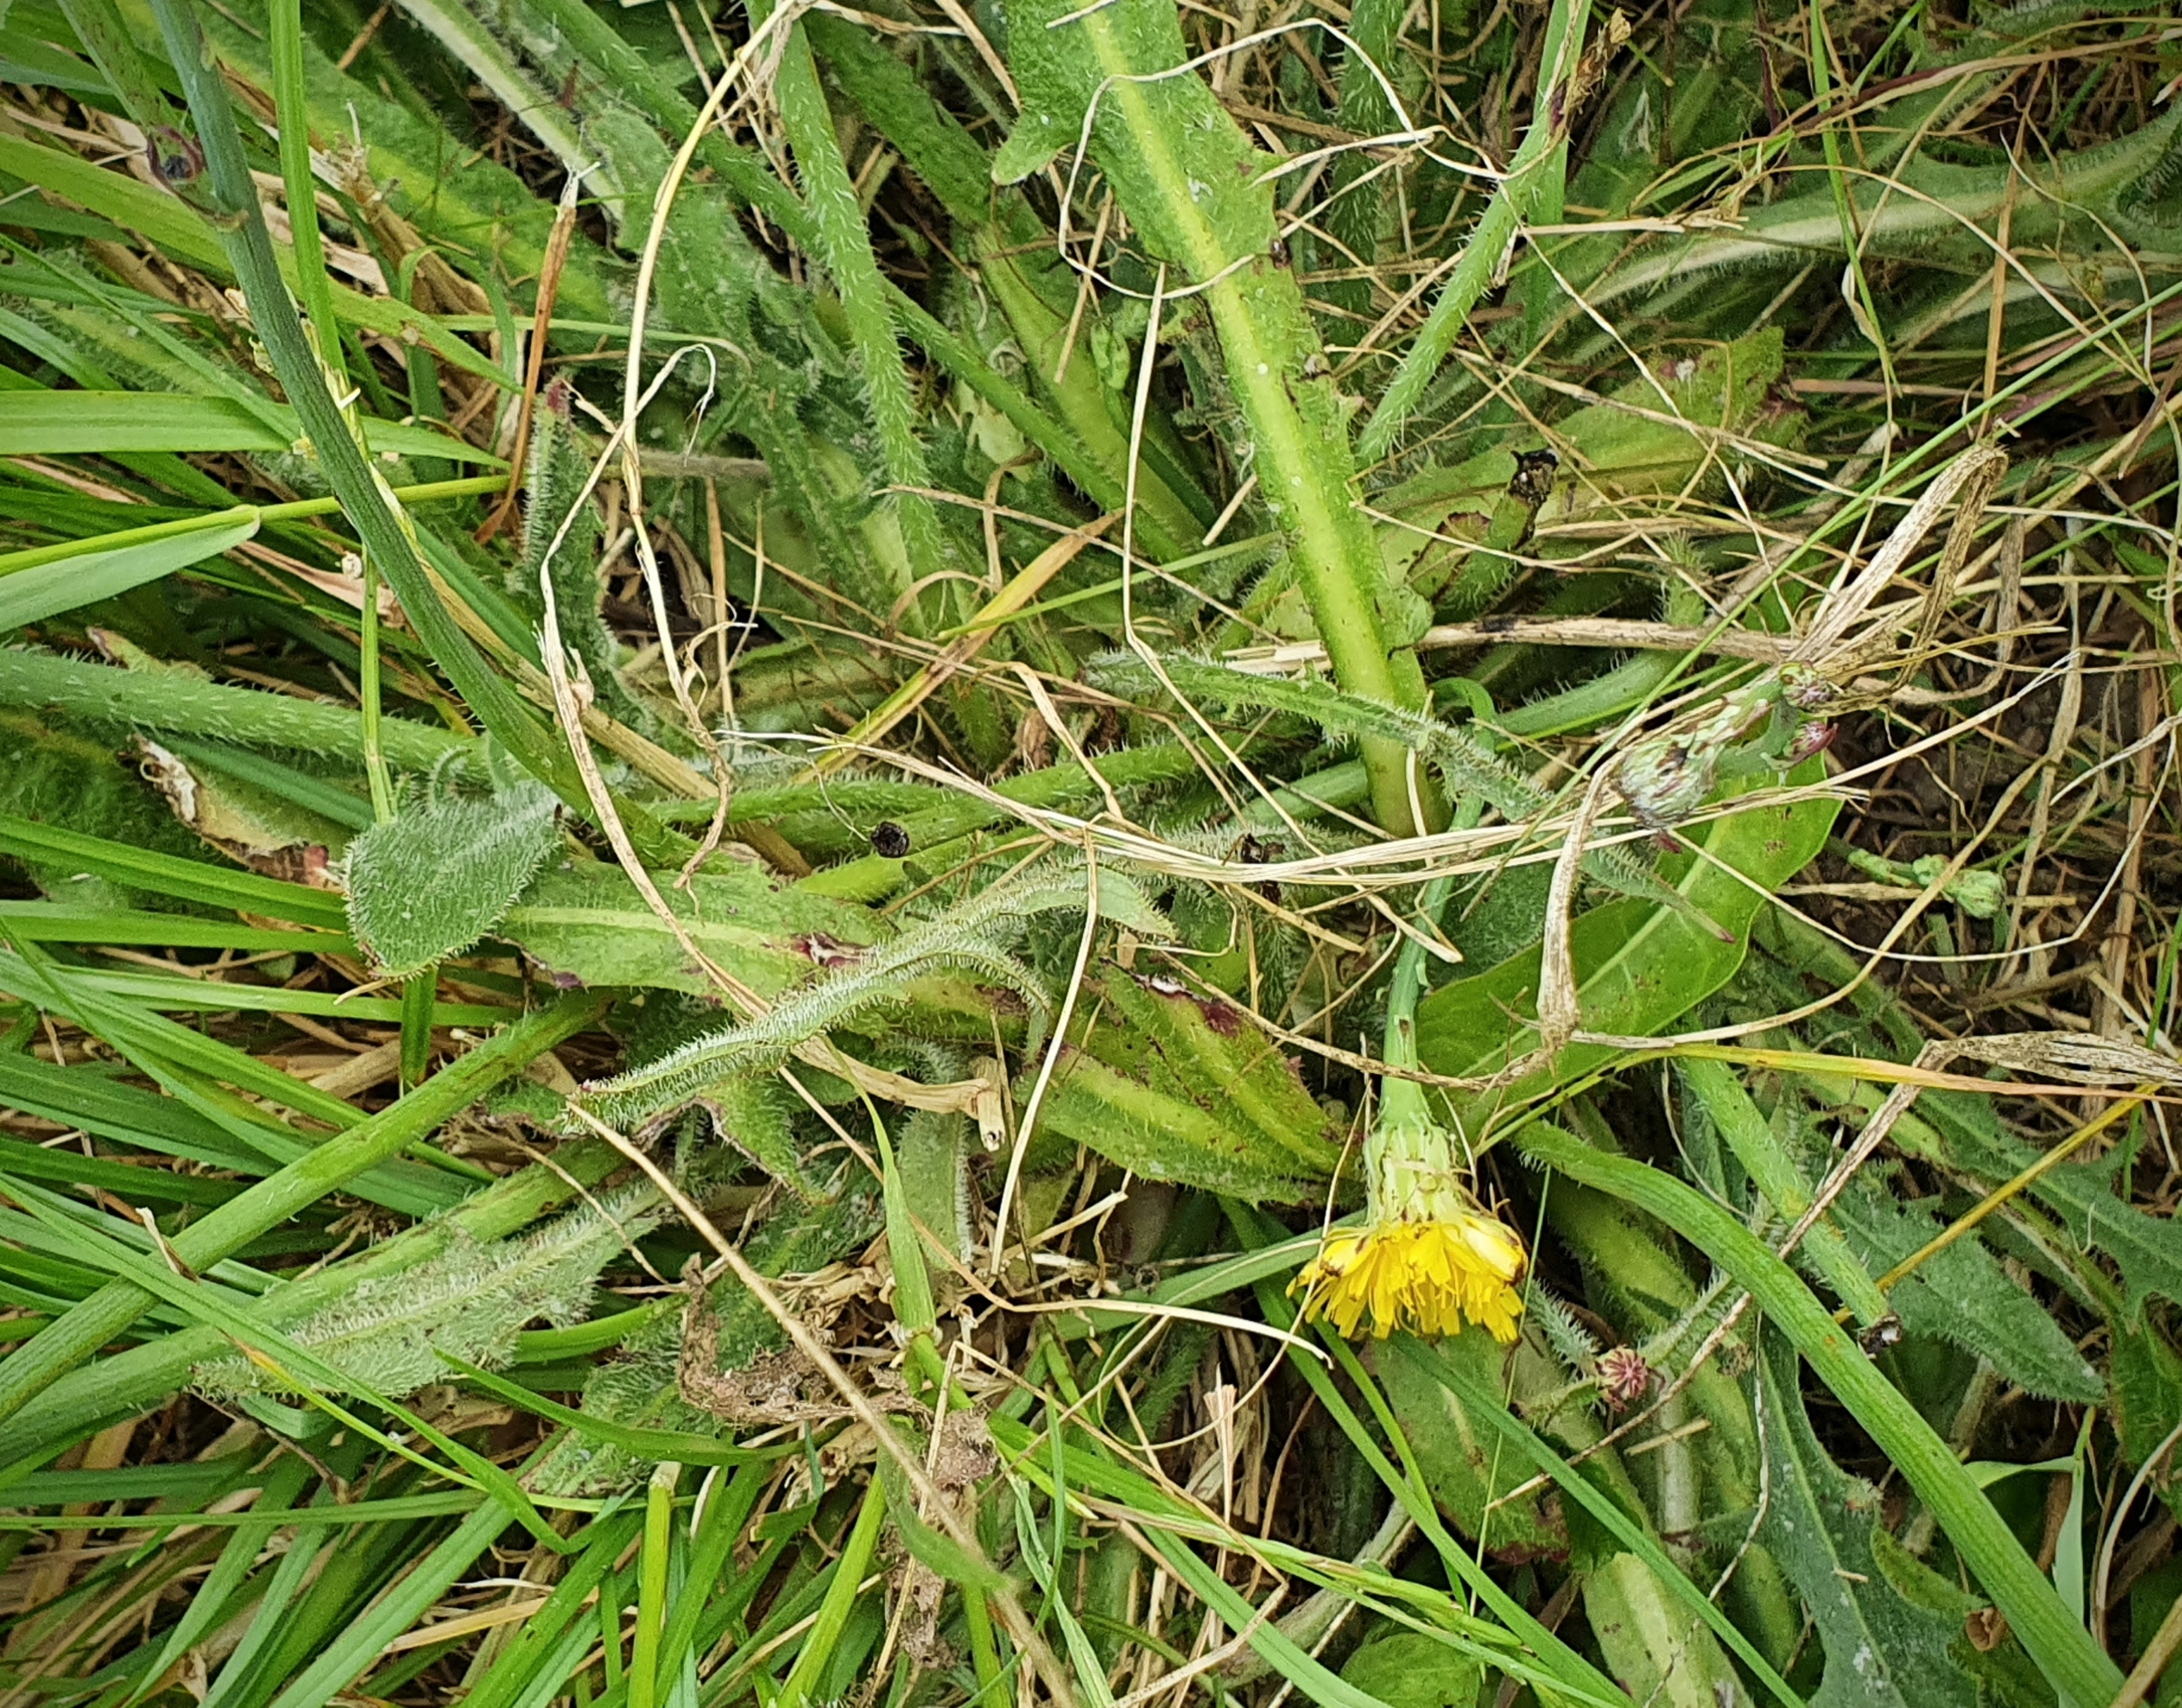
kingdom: Plantae
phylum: Tracheophyta
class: Magnoliopsida
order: Asterales
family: Asteraceae
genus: Hypochaeris
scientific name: Hypochaeris radicata
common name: Almindelig kongepen
